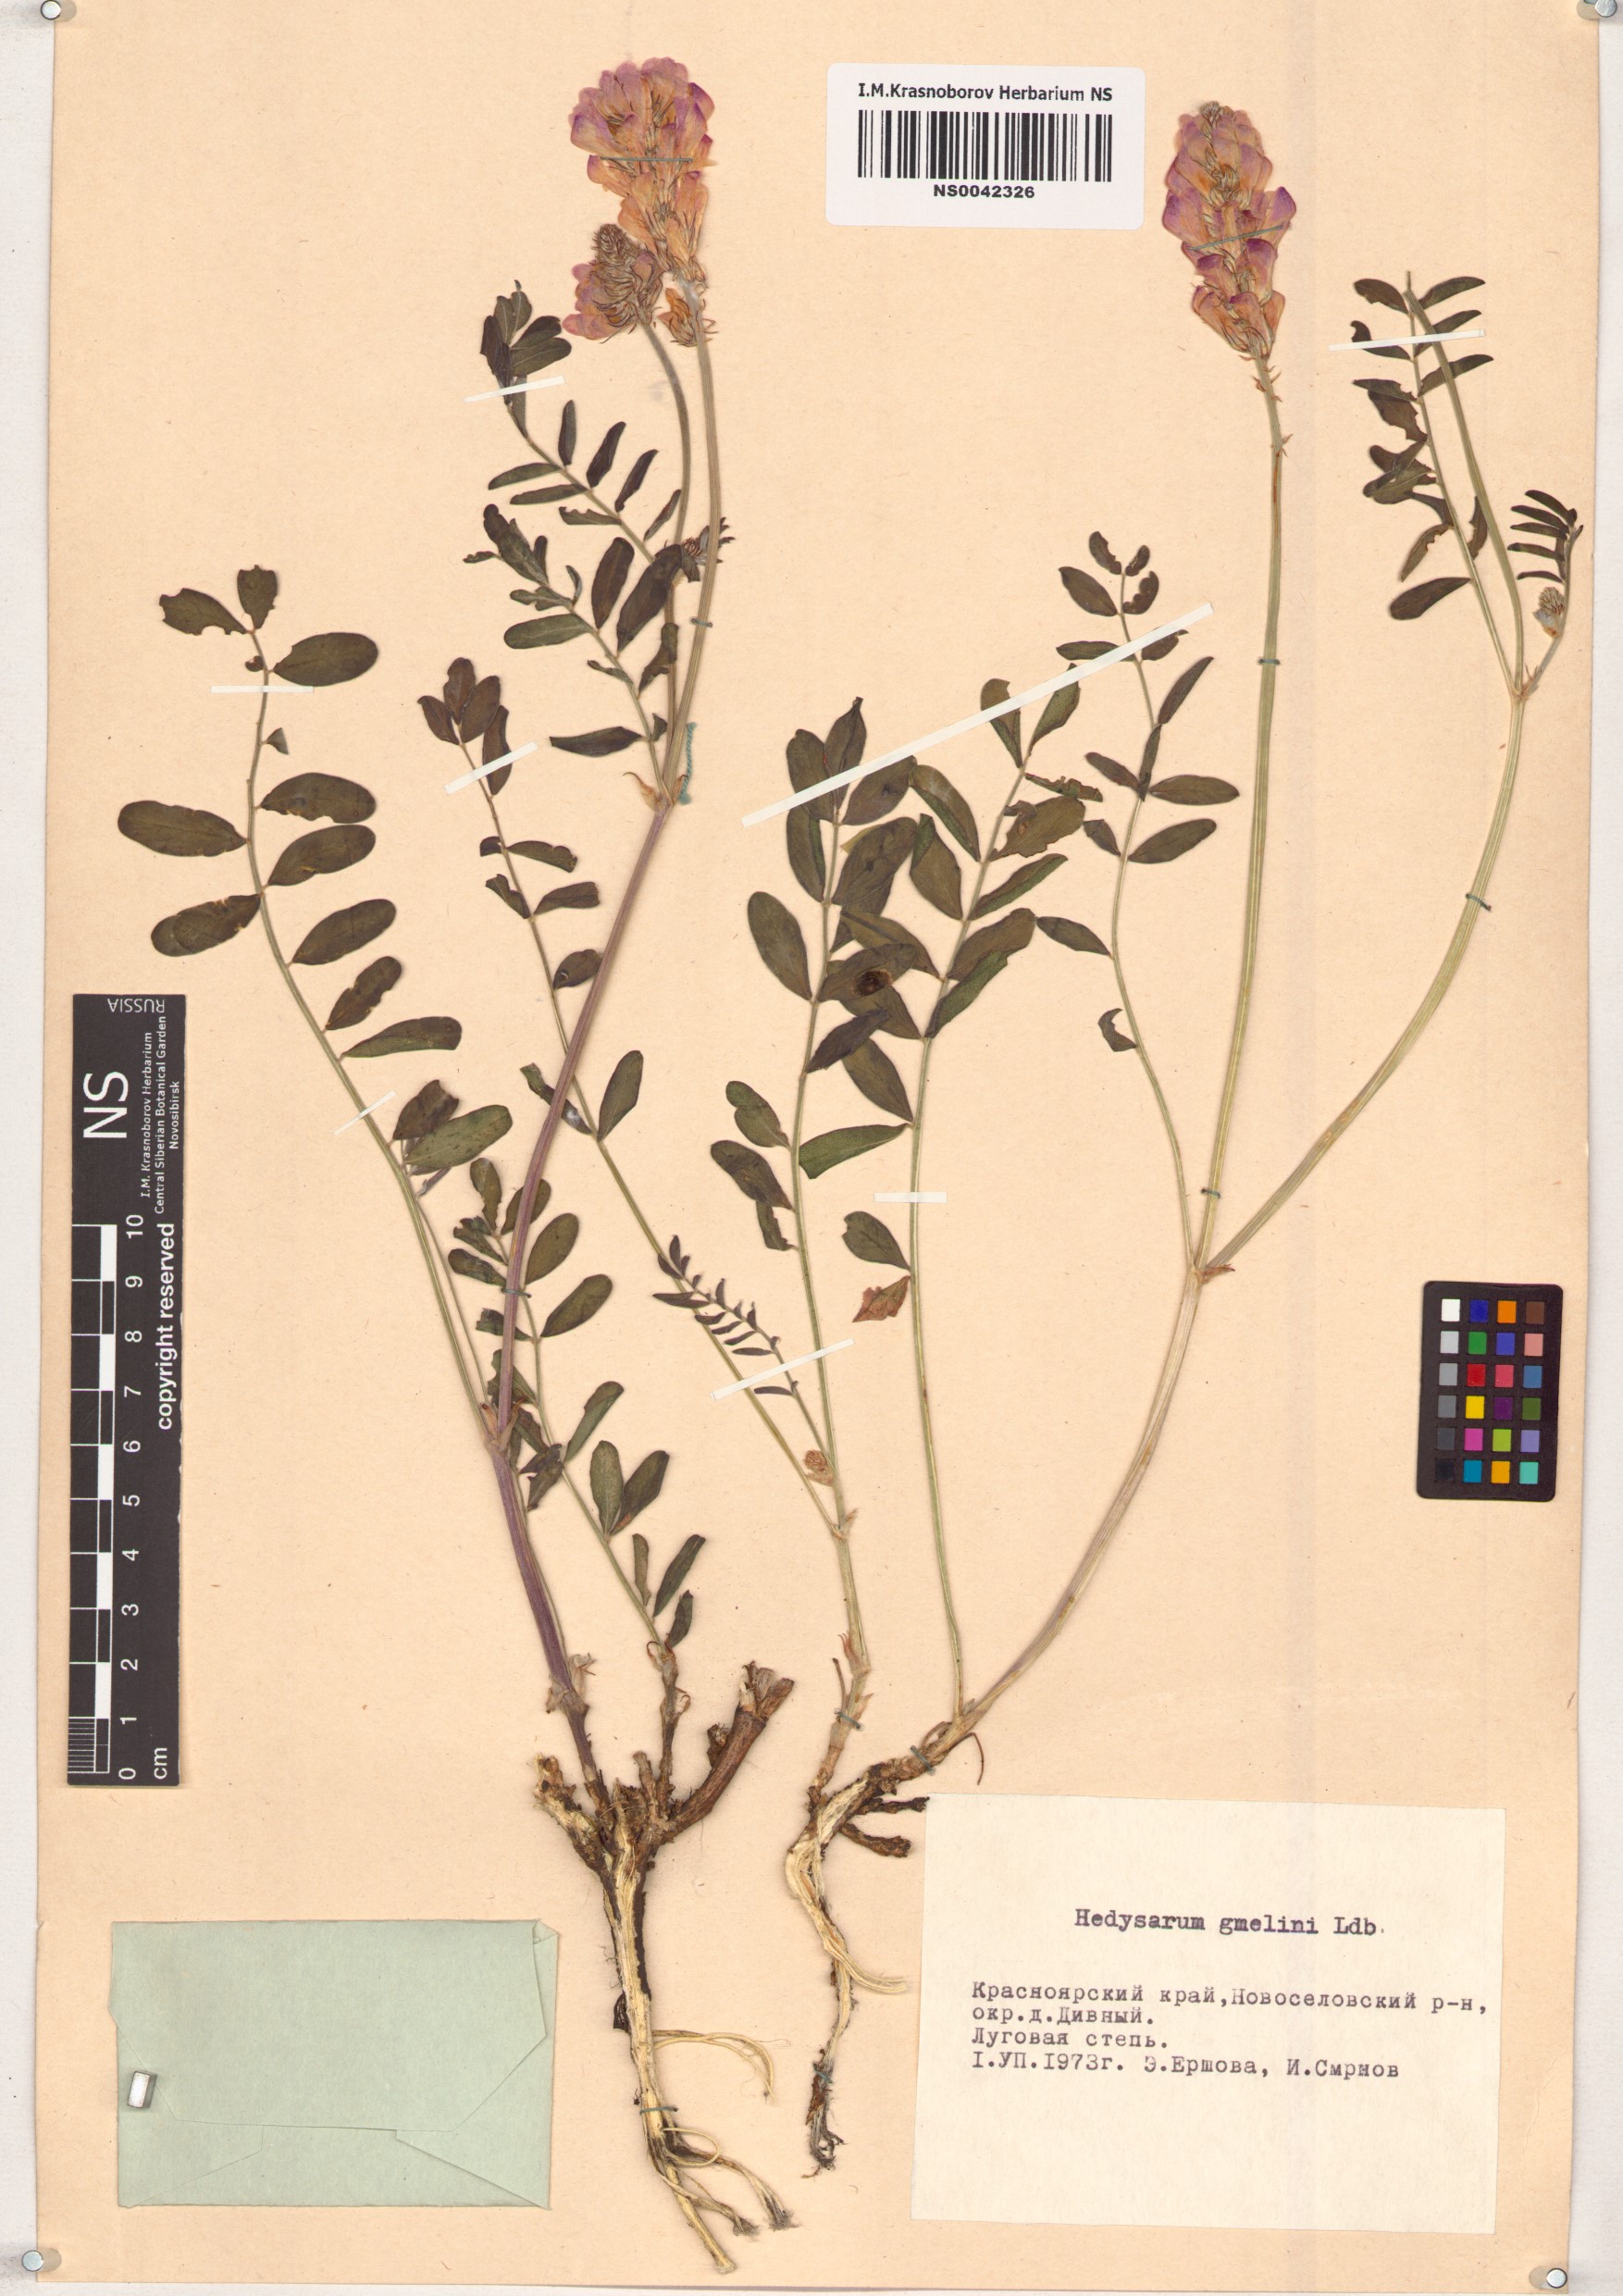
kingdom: Plantae
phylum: Tracheophyta
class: Magnoliopsida
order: Fabales
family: Fabaceae
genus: Hedysarum
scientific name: Hedysarum gmelinii
